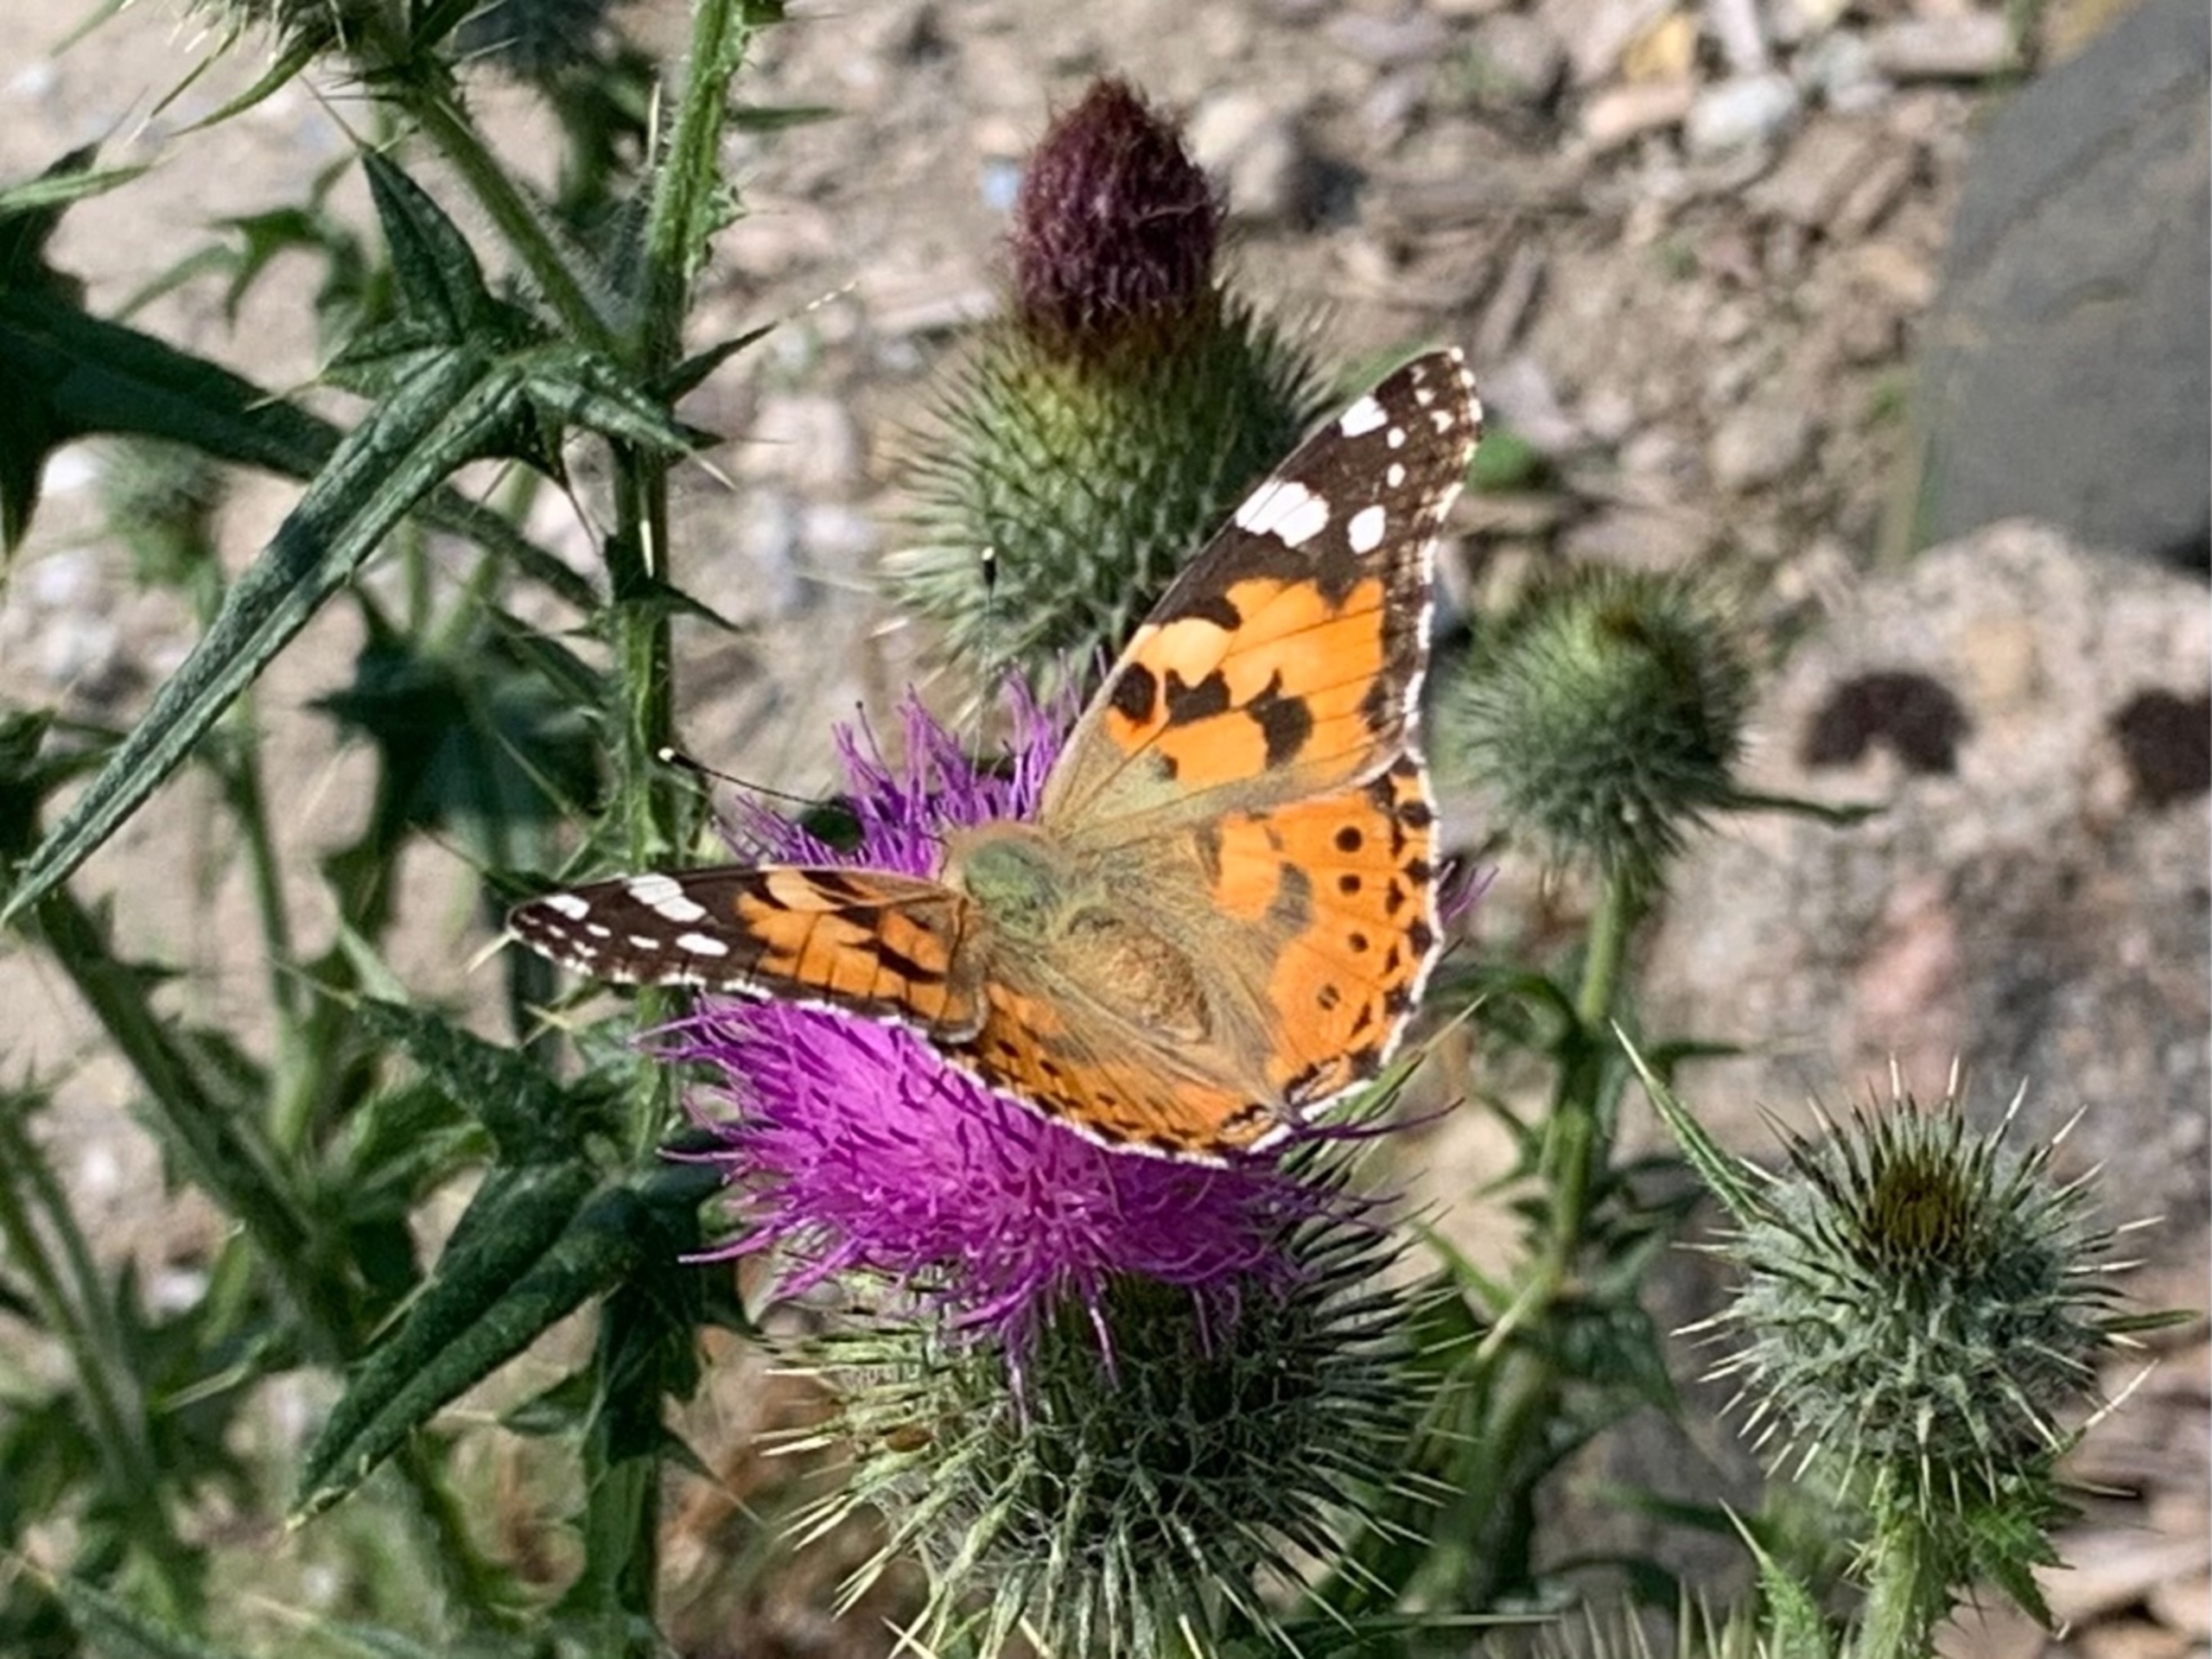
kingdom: Animalia
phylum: Arthropoda
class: Insecta
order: Lepidoptera
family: Nymphalidae
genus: Vanessa
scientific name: Vanessa cardui
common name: Tidselsommerfugl
